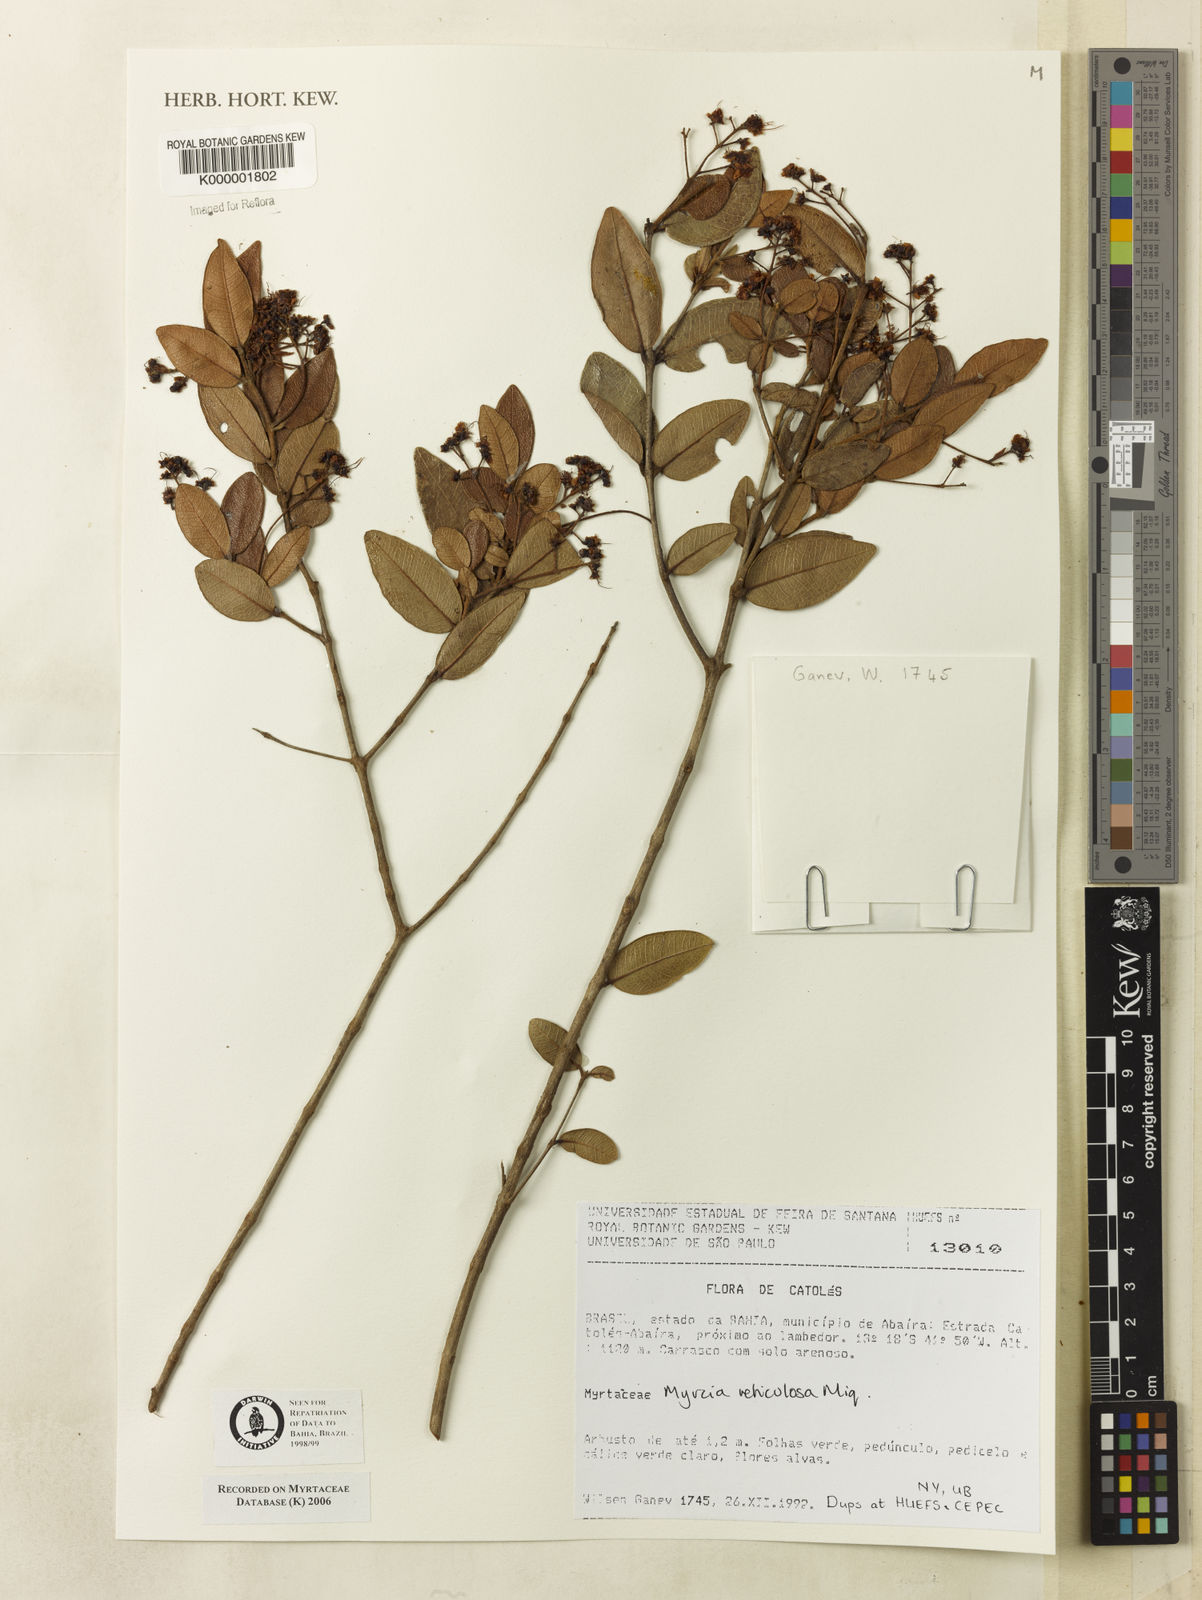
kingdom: Plantae
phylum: Tracheophyta
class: Magnoliopsida
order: Myrtales
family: Myrtaceae
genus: Myrcia
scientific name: Myrcia reticulosa
